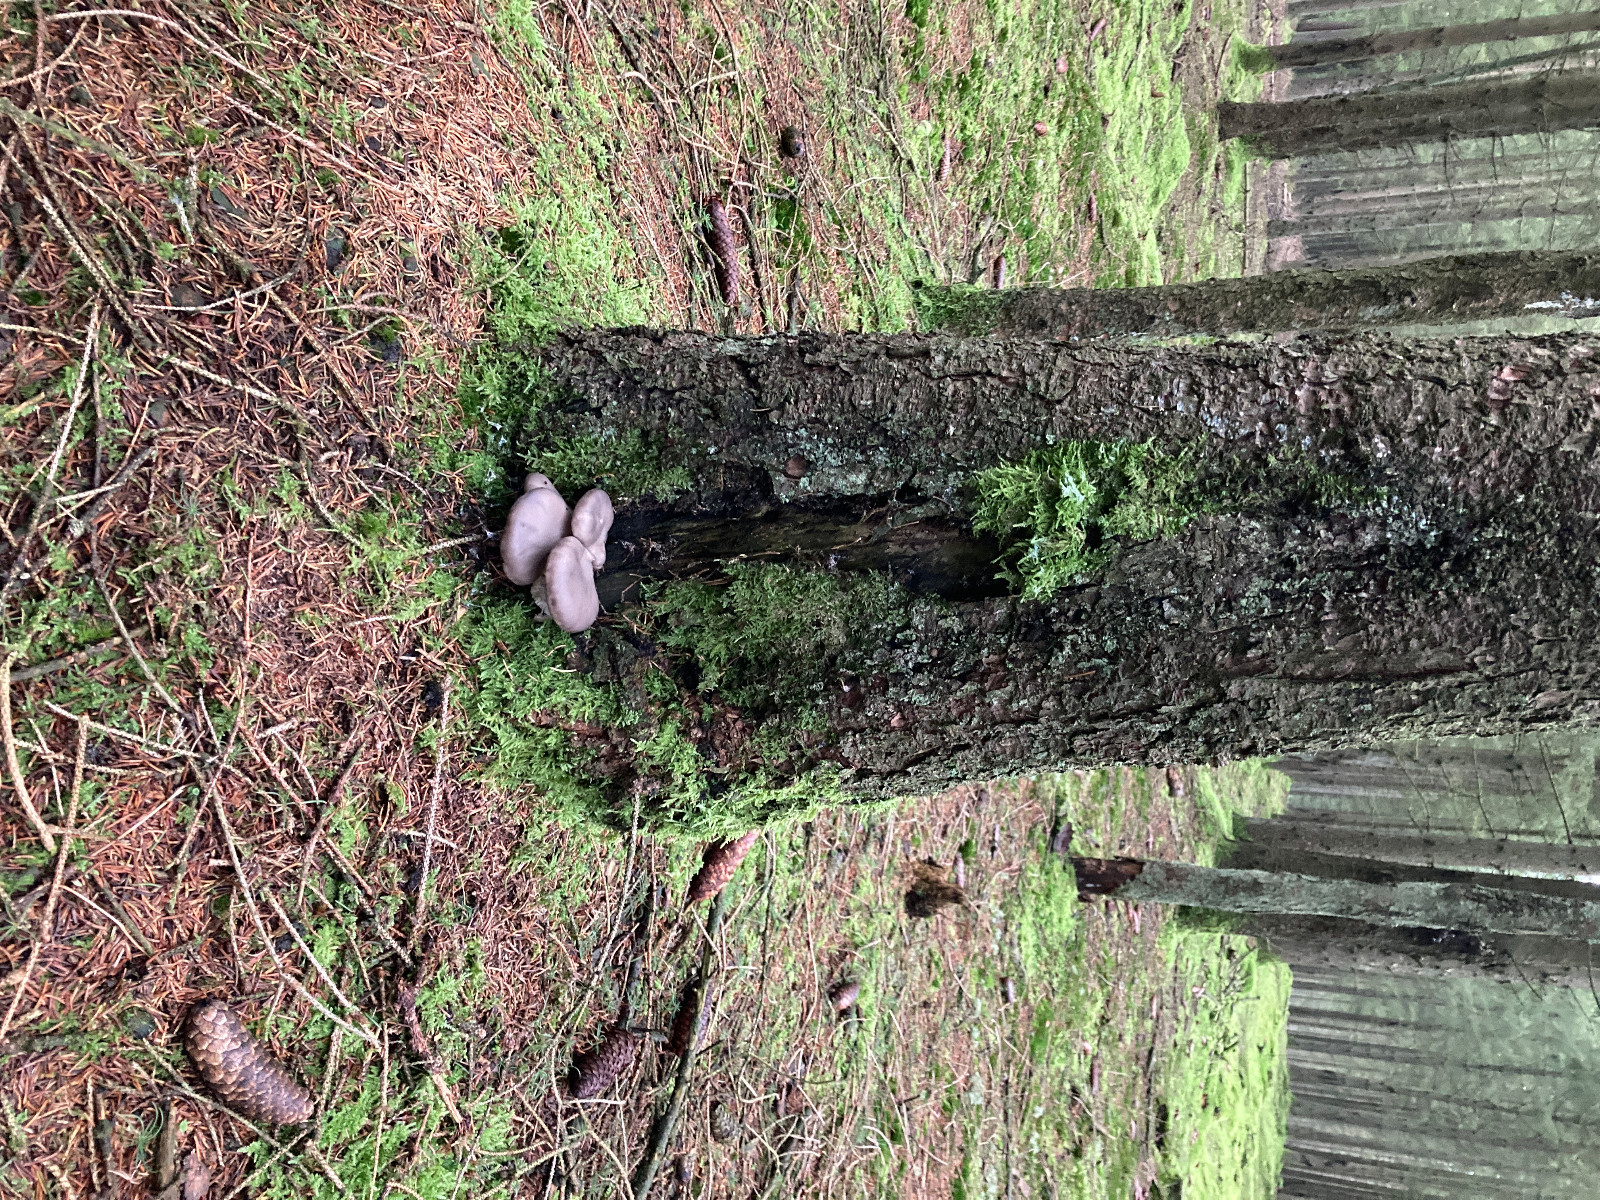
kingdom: Fungi
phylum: Basidiomycota
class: Agaricomycetes
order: Agaricales
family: Pleurotaceae
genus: Pleurotus
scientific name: Pleurotus ostreatus
